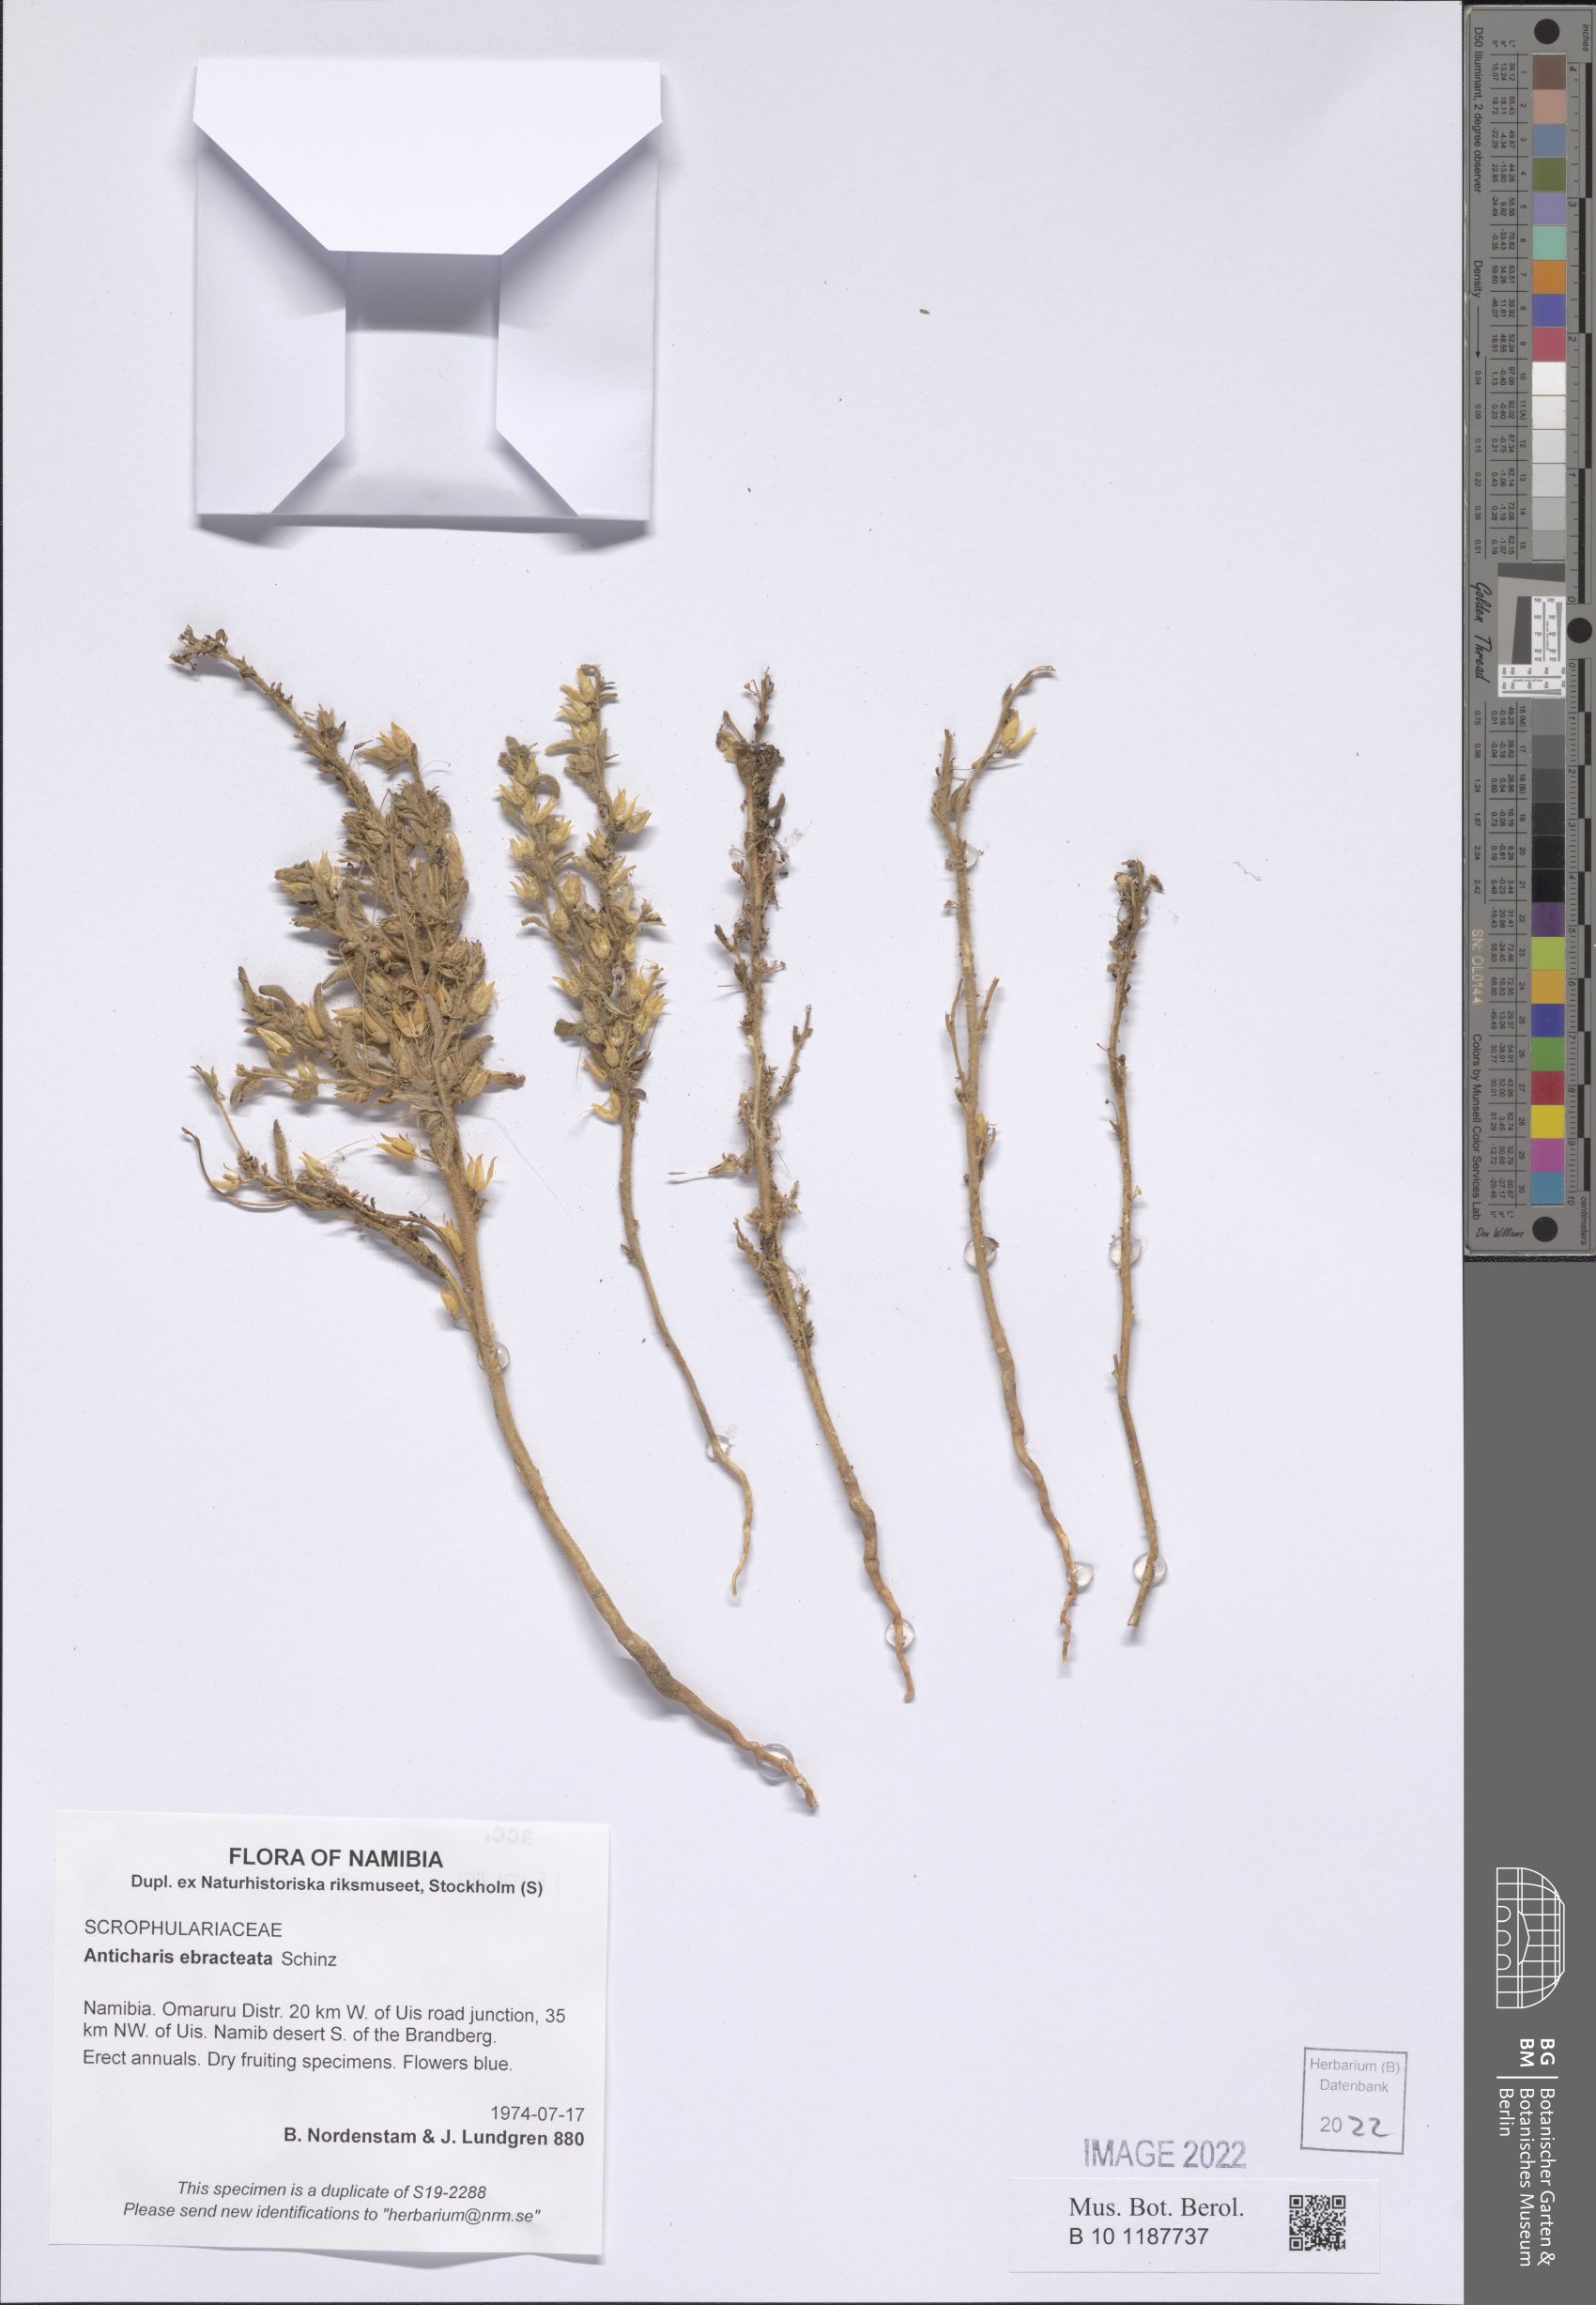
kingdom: Plantae
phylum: Tracheophyta
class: Magnoliopsida
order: Lamiales
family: Scrophulariaceae
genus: Anticharis
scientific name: Anticharis ebracteata
